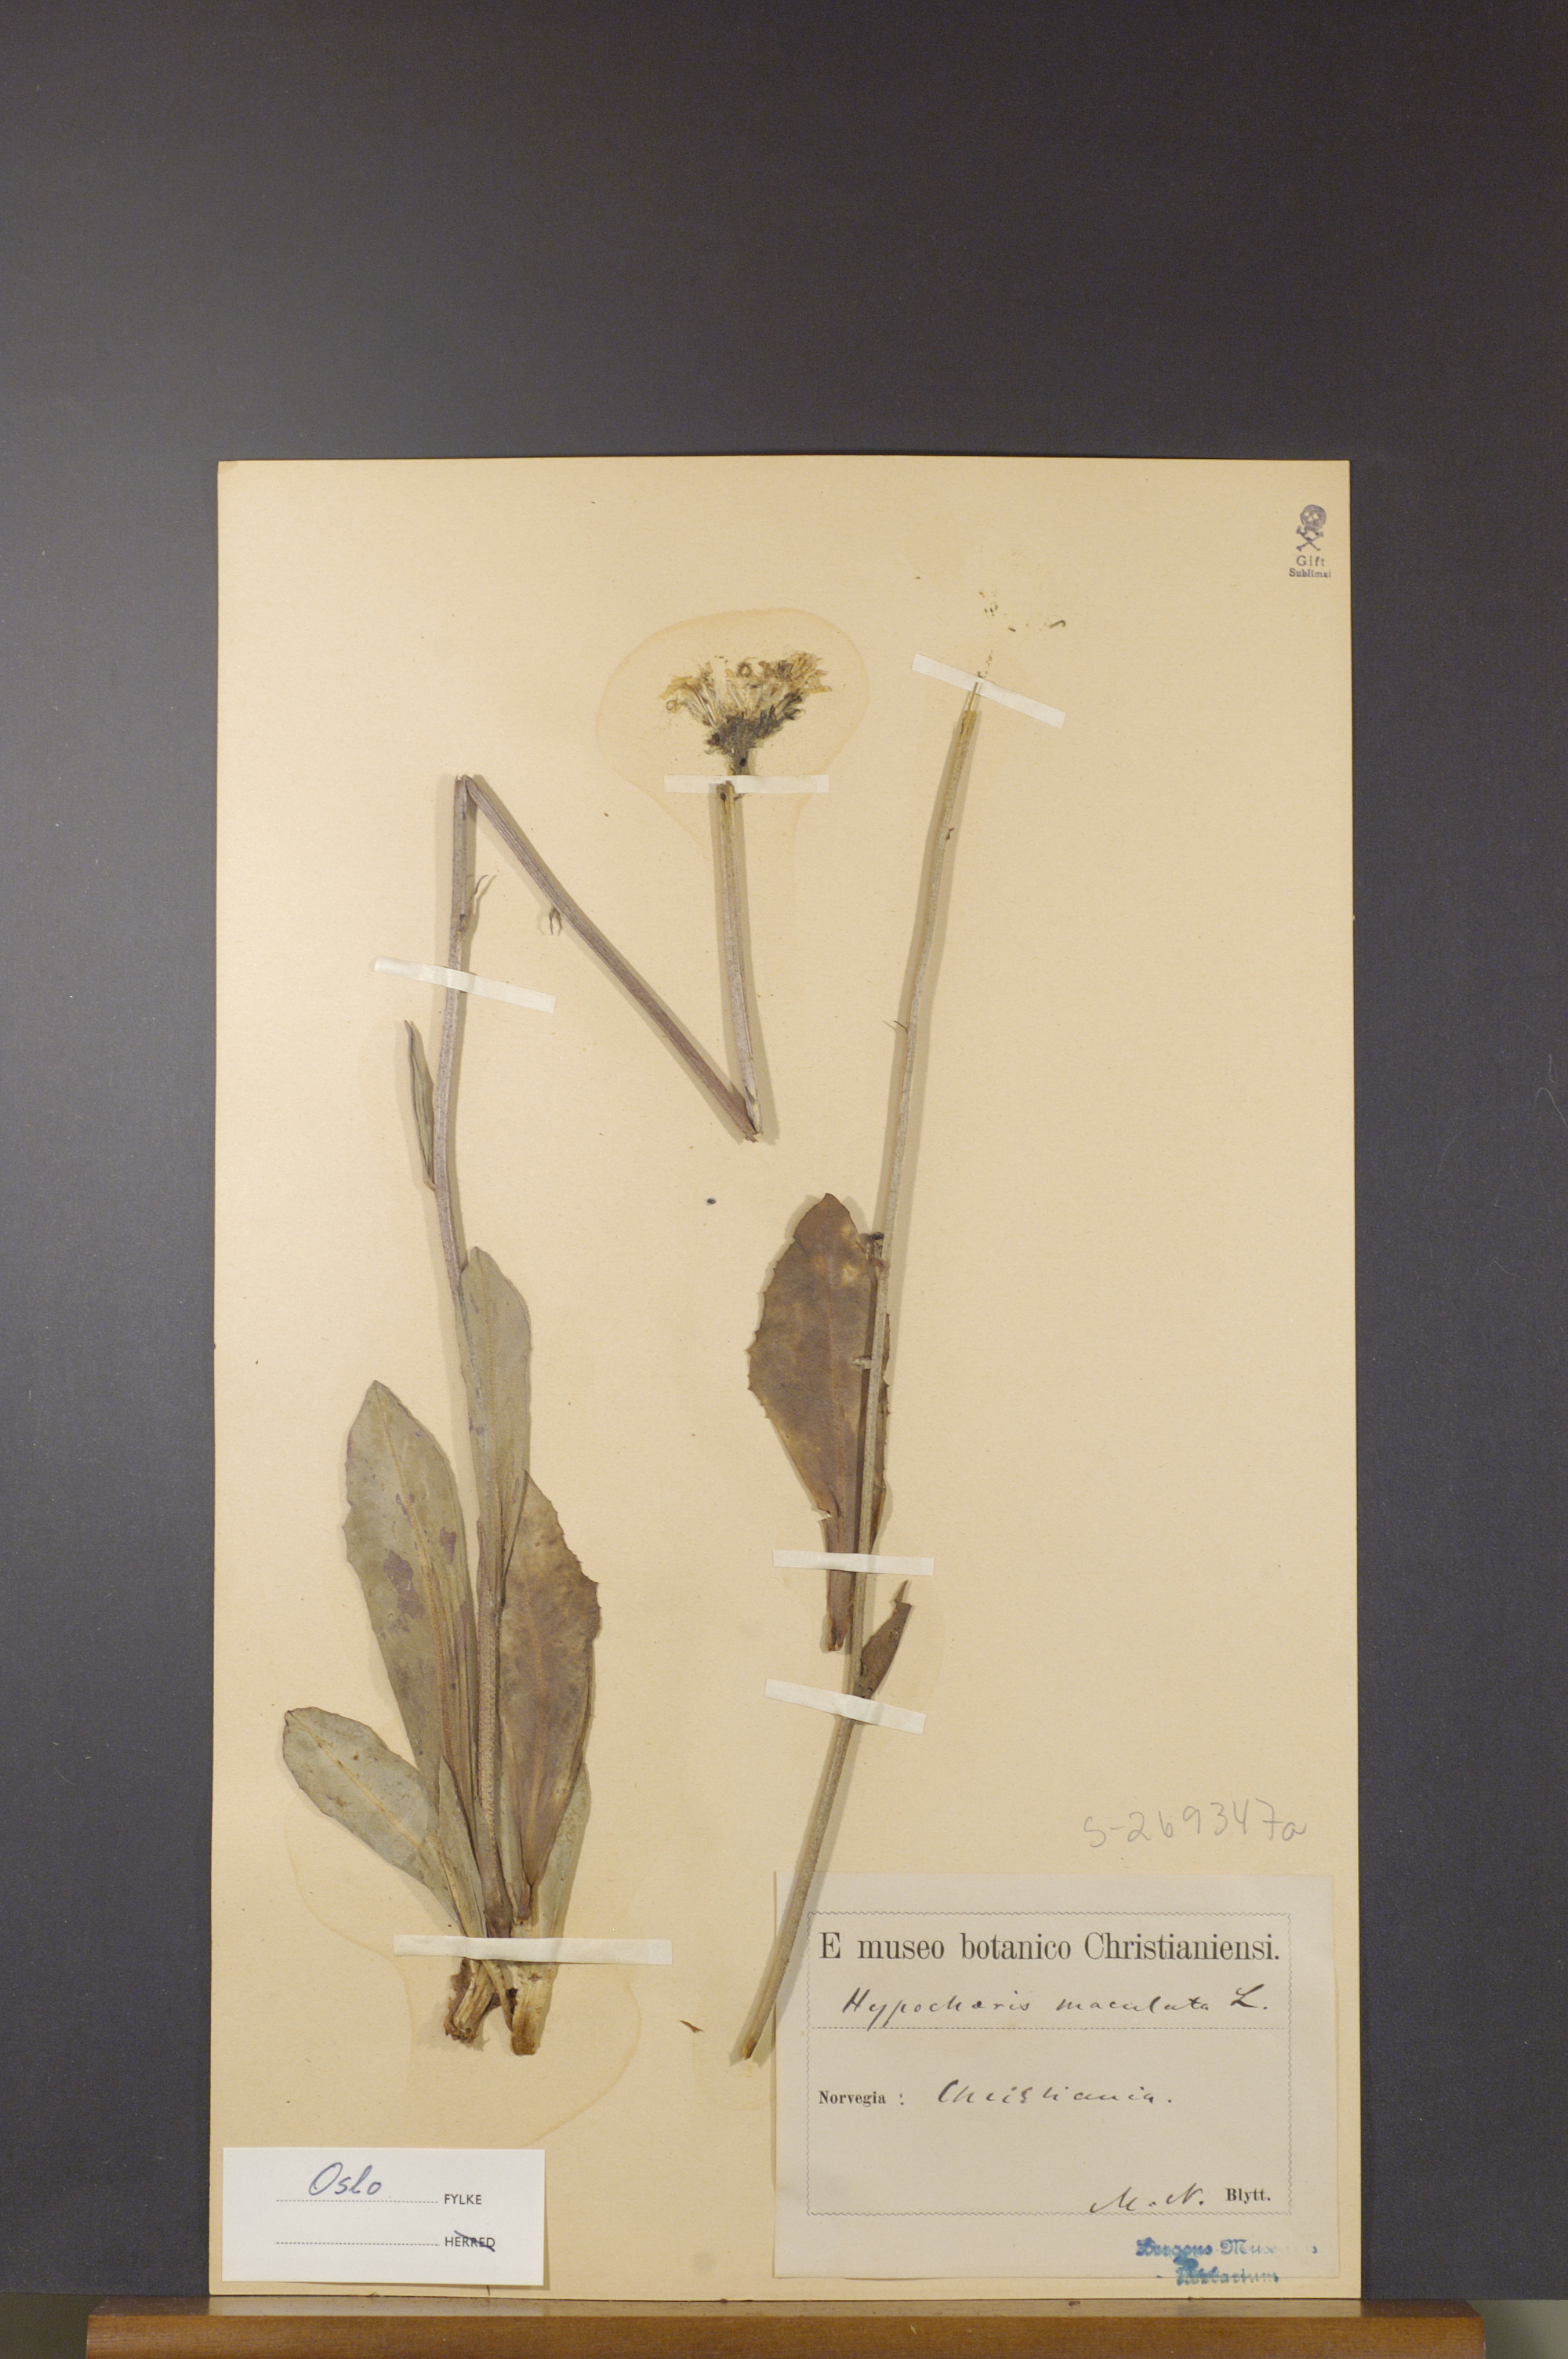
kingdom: Plantae
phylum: Tracheophyta
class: Magnoliopsida
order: Asterales
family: Asteraceae
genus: Trommsdorffia
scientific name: Trommsdorffia maculata
